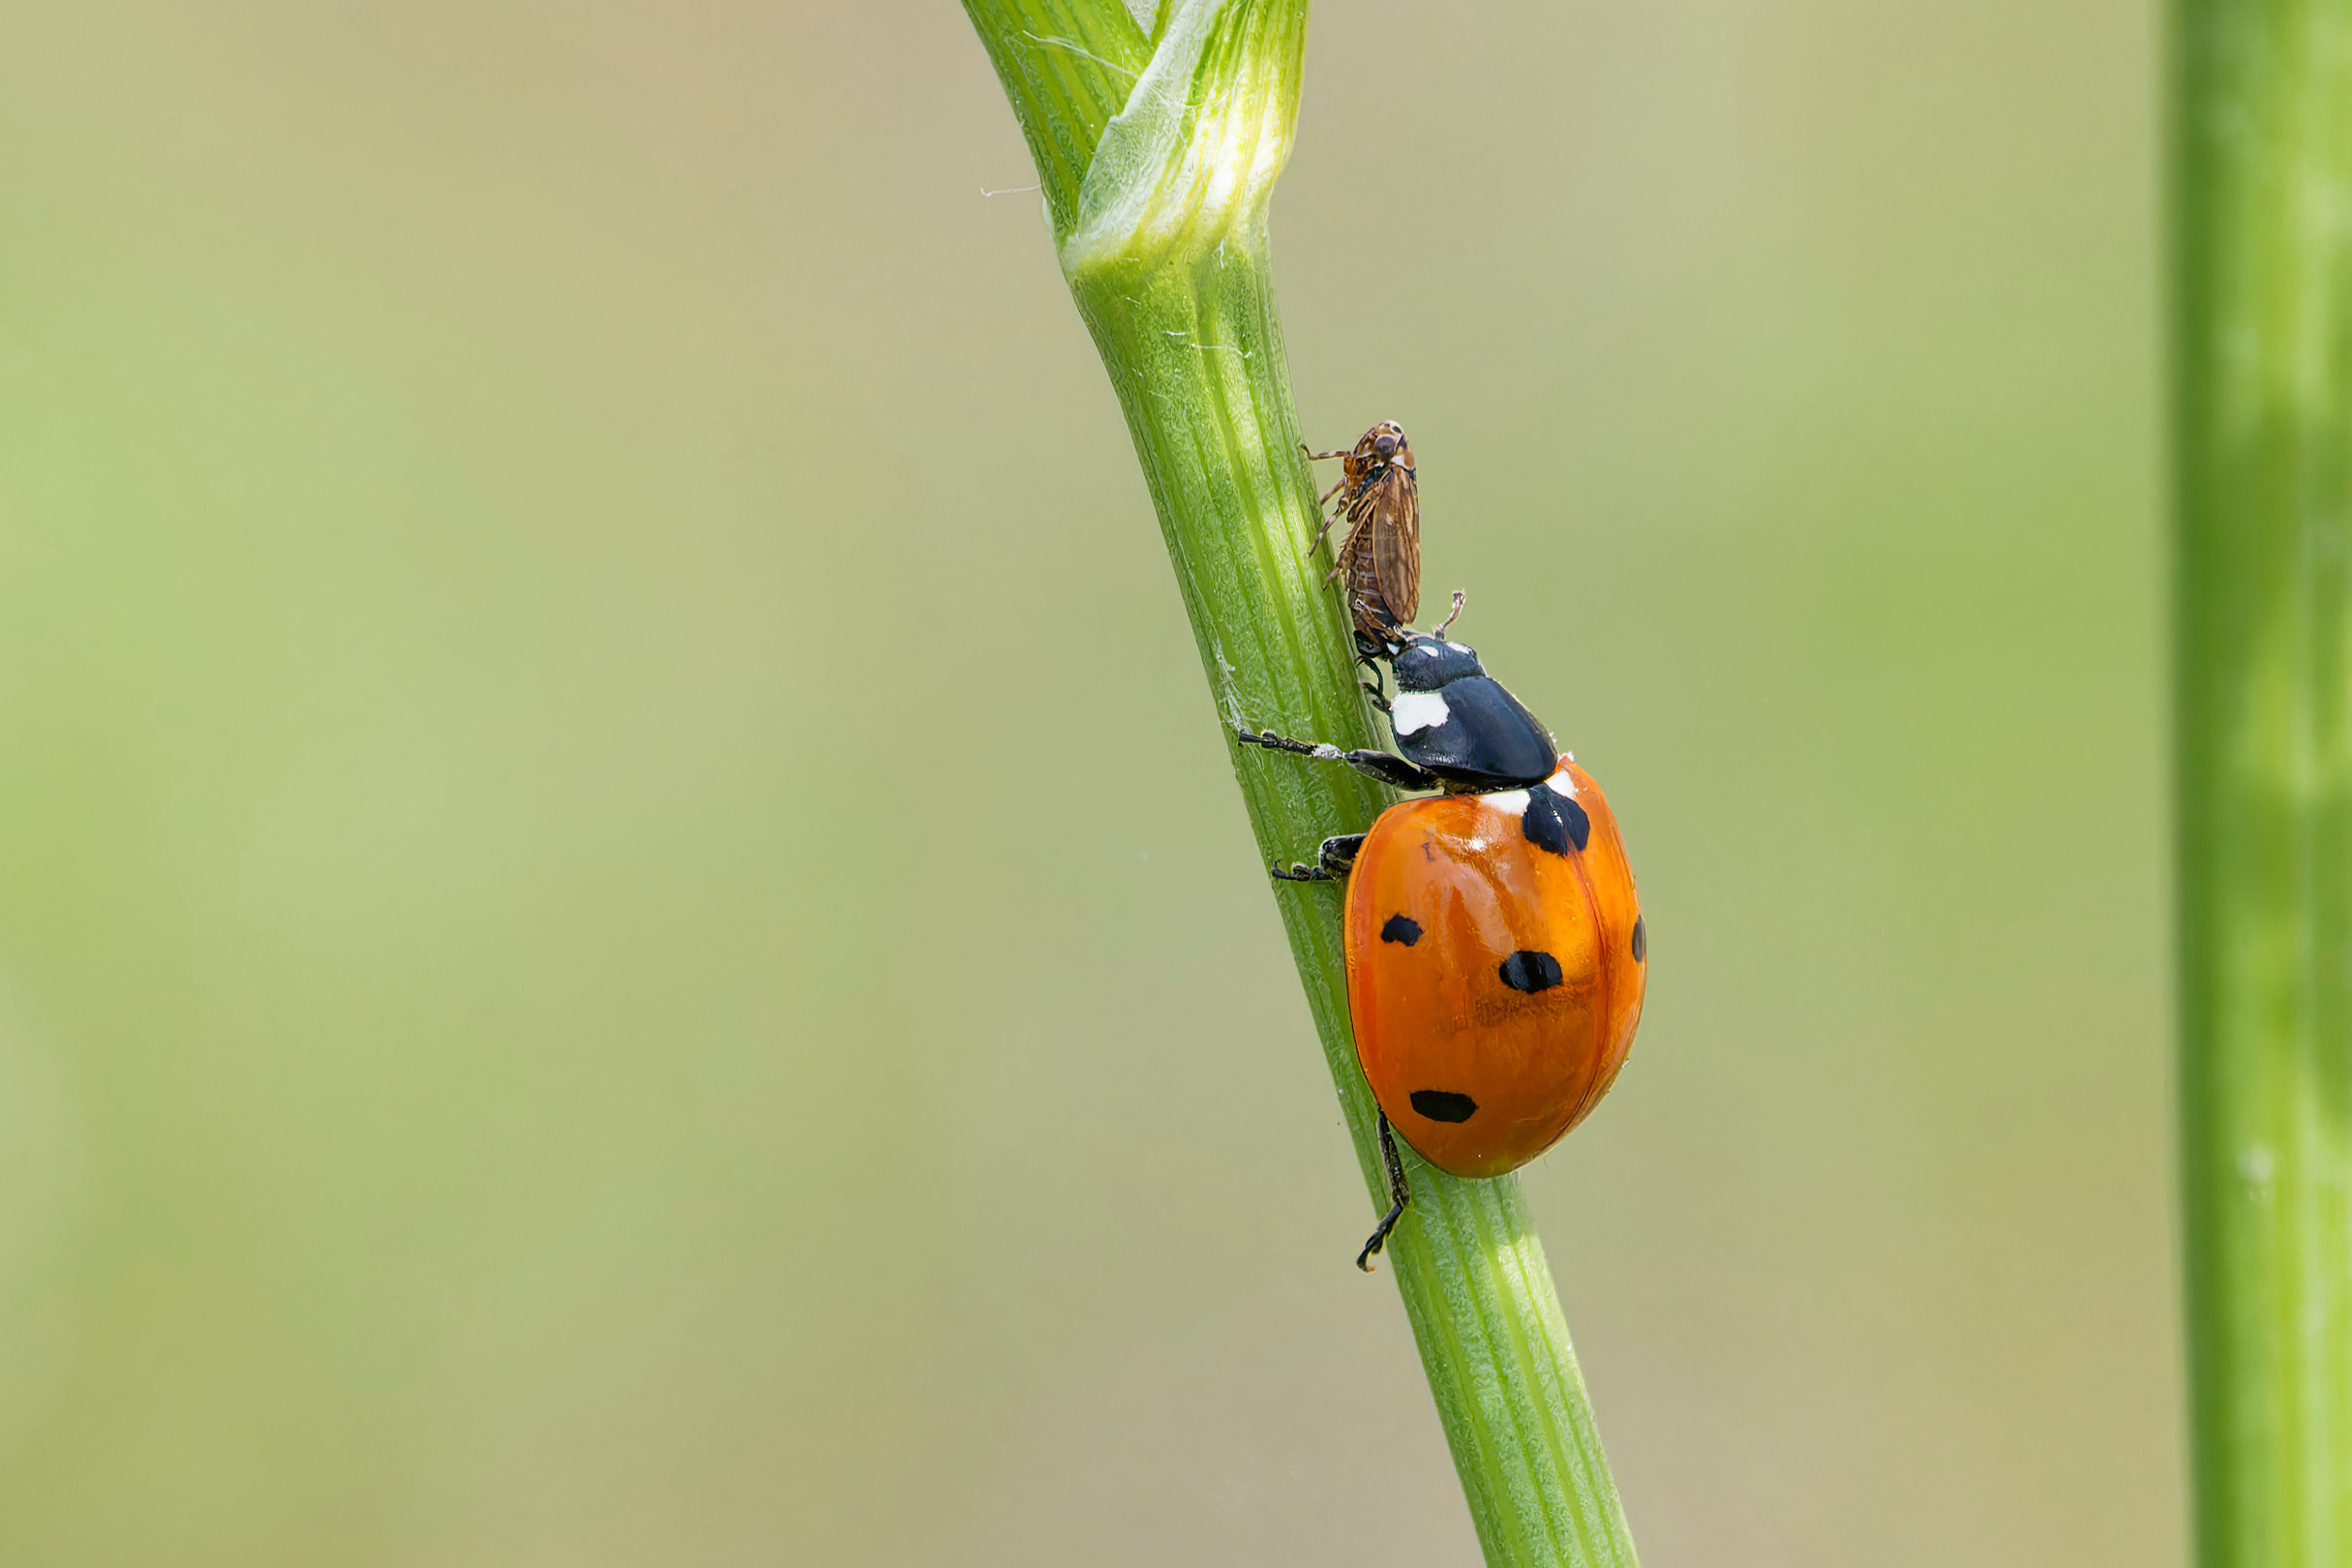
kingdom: Animalia
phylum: Arthropoda
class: Insecta
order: Coleoptera
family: Coccinellidae
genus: Coccinella
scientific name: Coccinella septempunctata
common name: Syvplettet mariehøne
